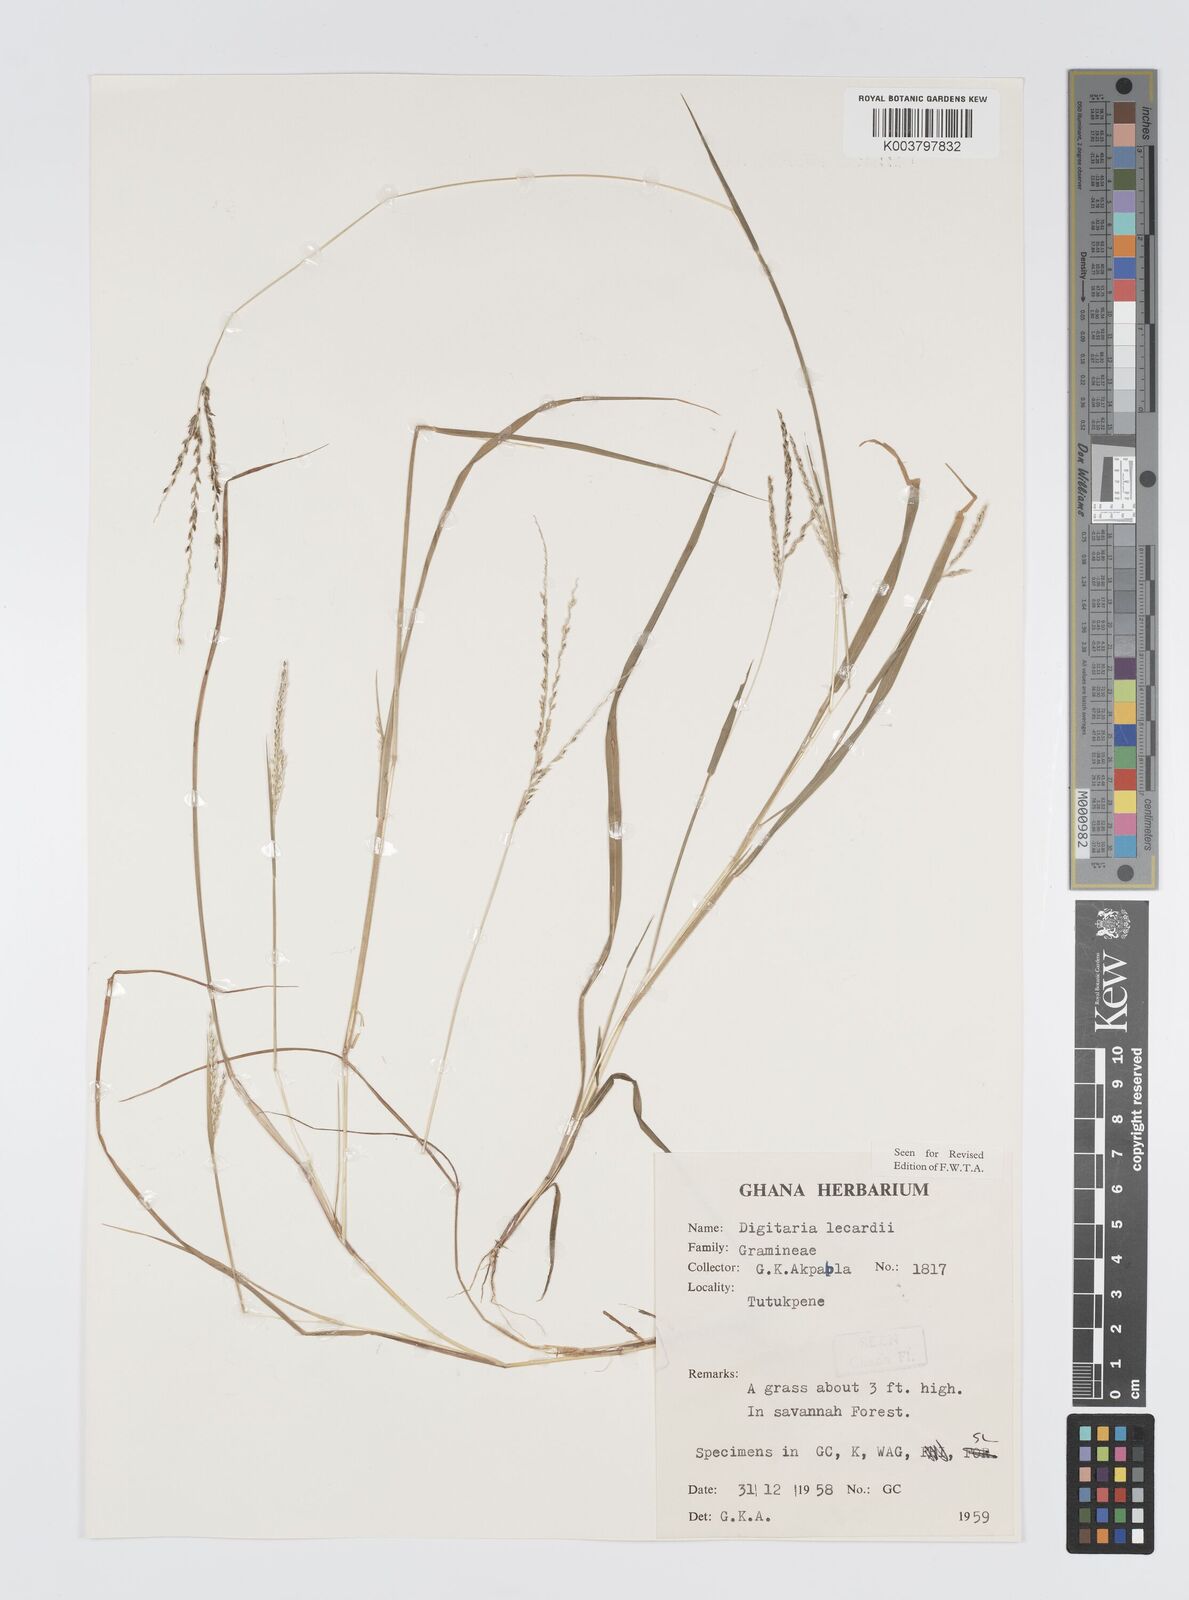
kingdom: Plantae
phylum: Tracheophyta
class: Liliopsida
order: Poales
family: Poaceae
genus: Digitaria
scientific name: Digitaria
